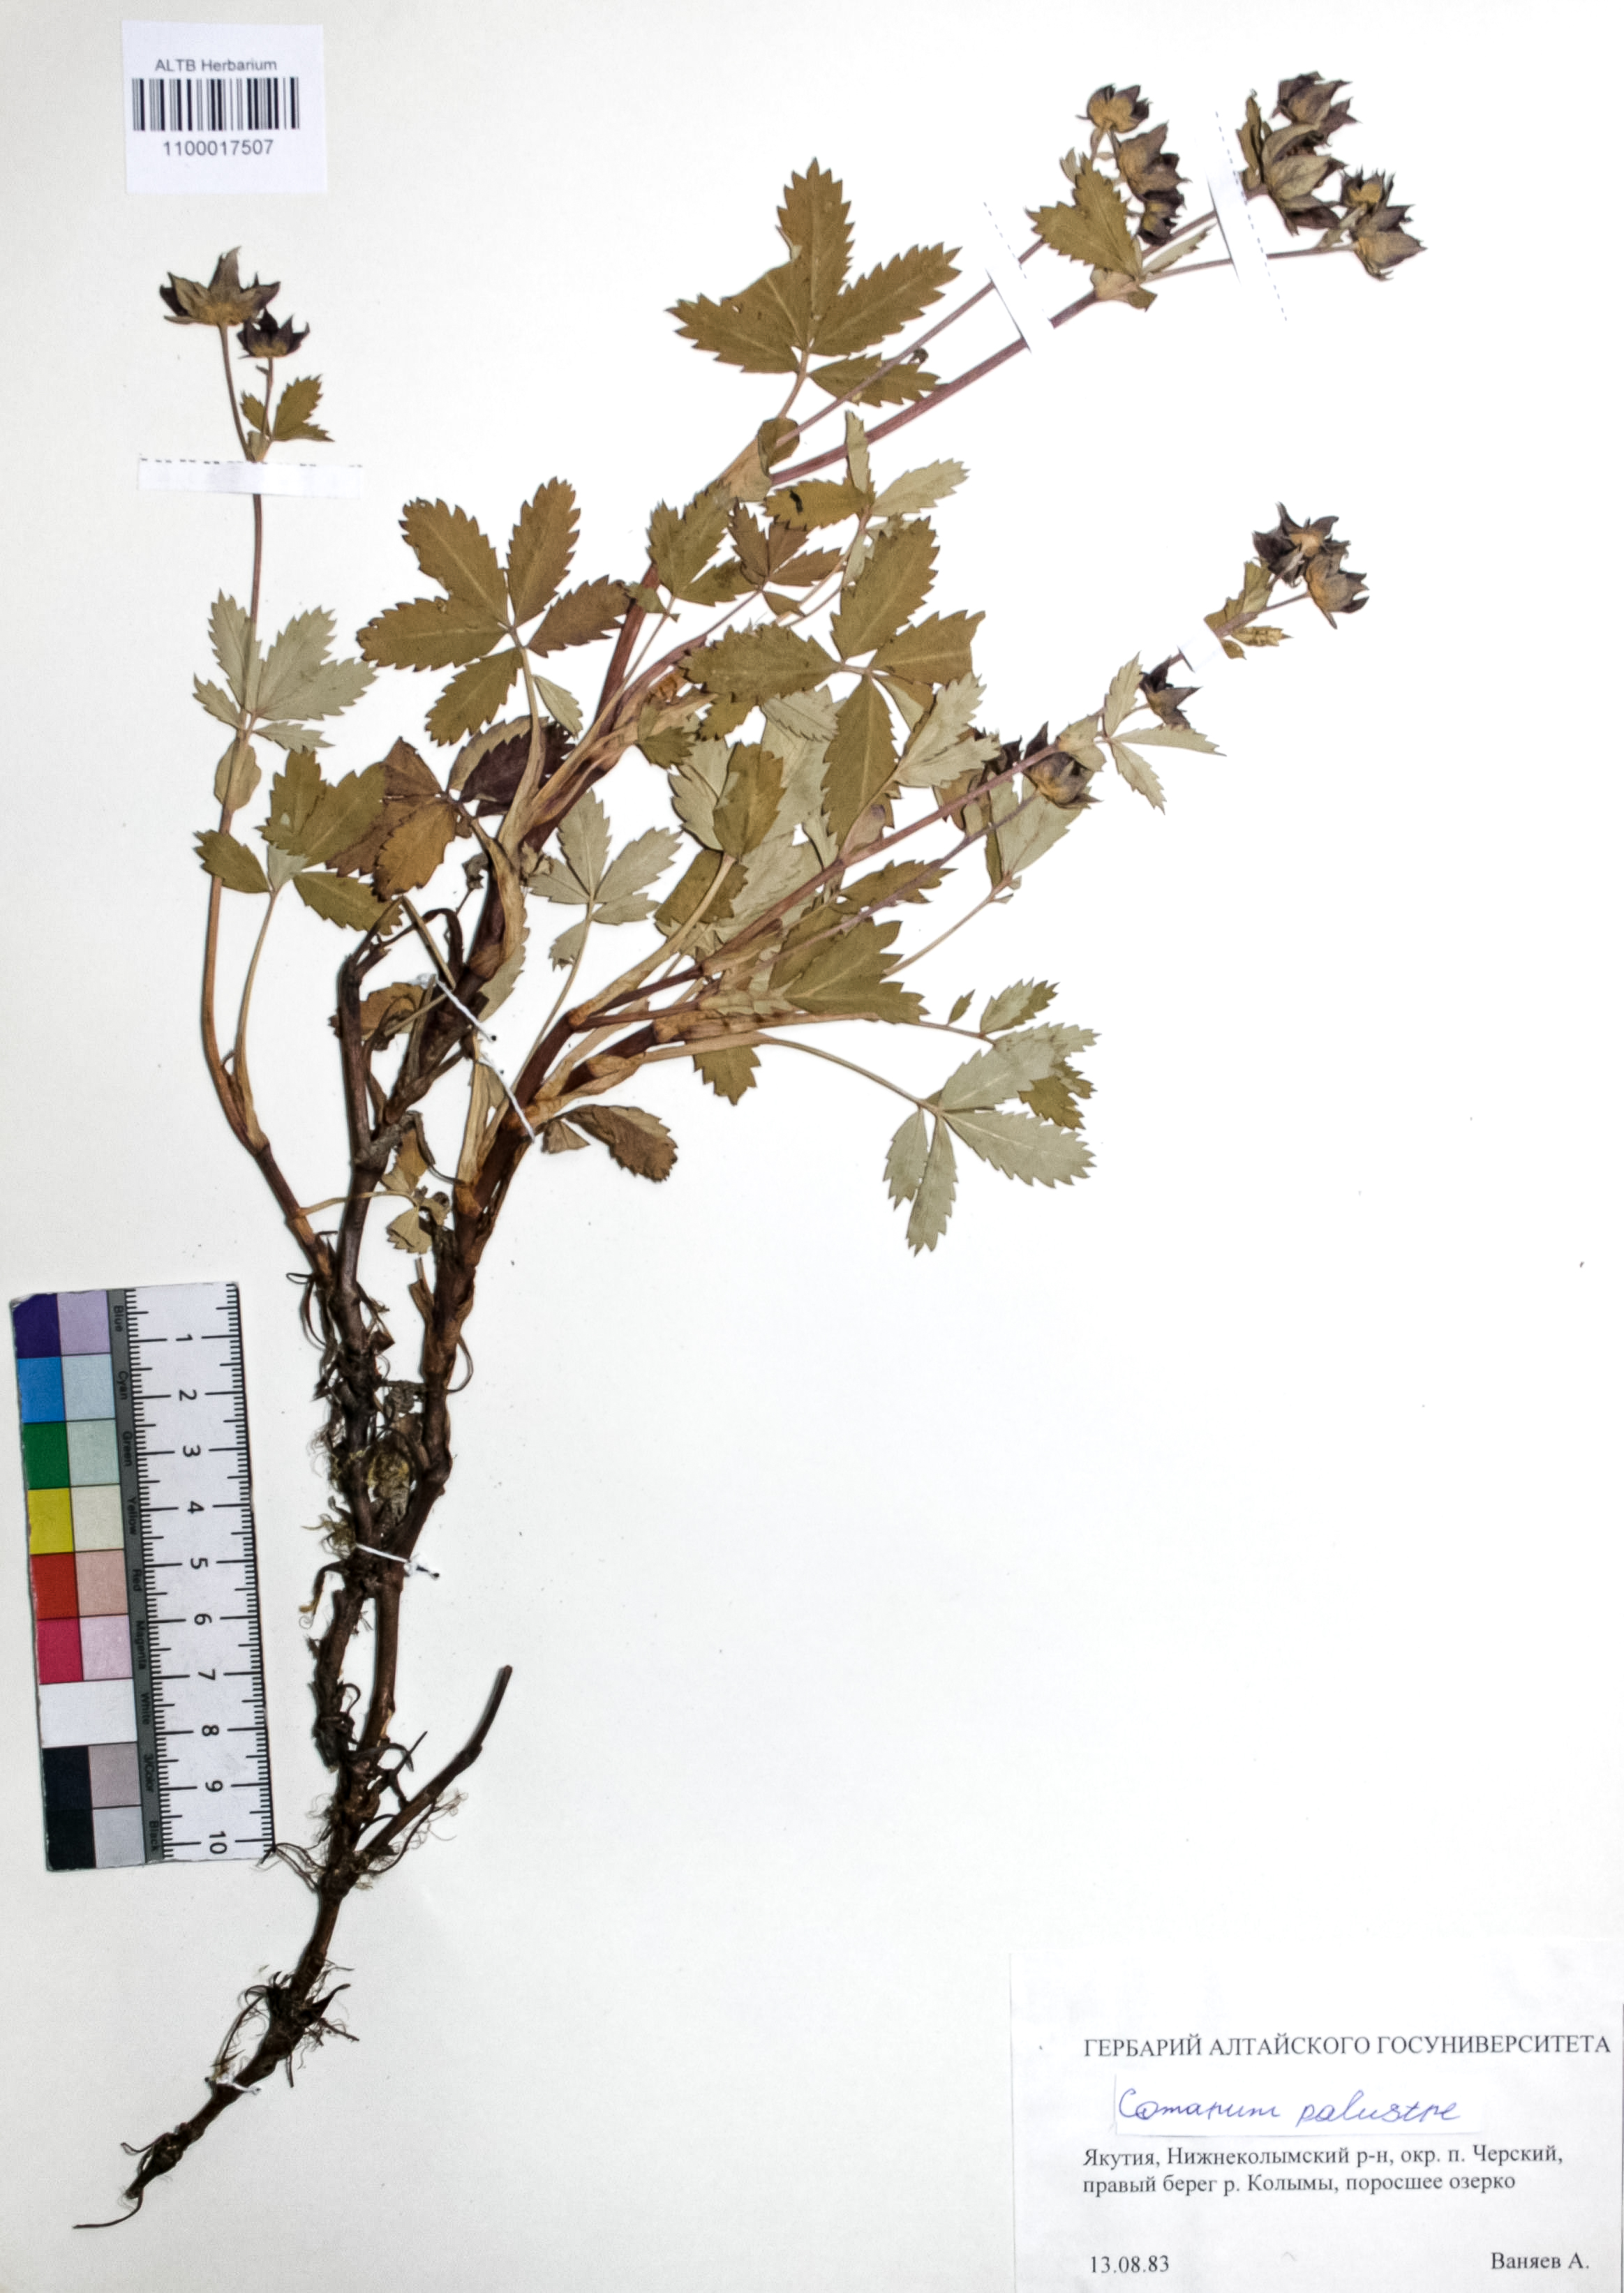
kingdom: Plantae
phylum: Tracheophyta
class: Magnoliopsida
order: Rosales
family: Rosaceae
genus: Comarum
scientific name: Comarum palustre
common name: Marsh cinquefoil
